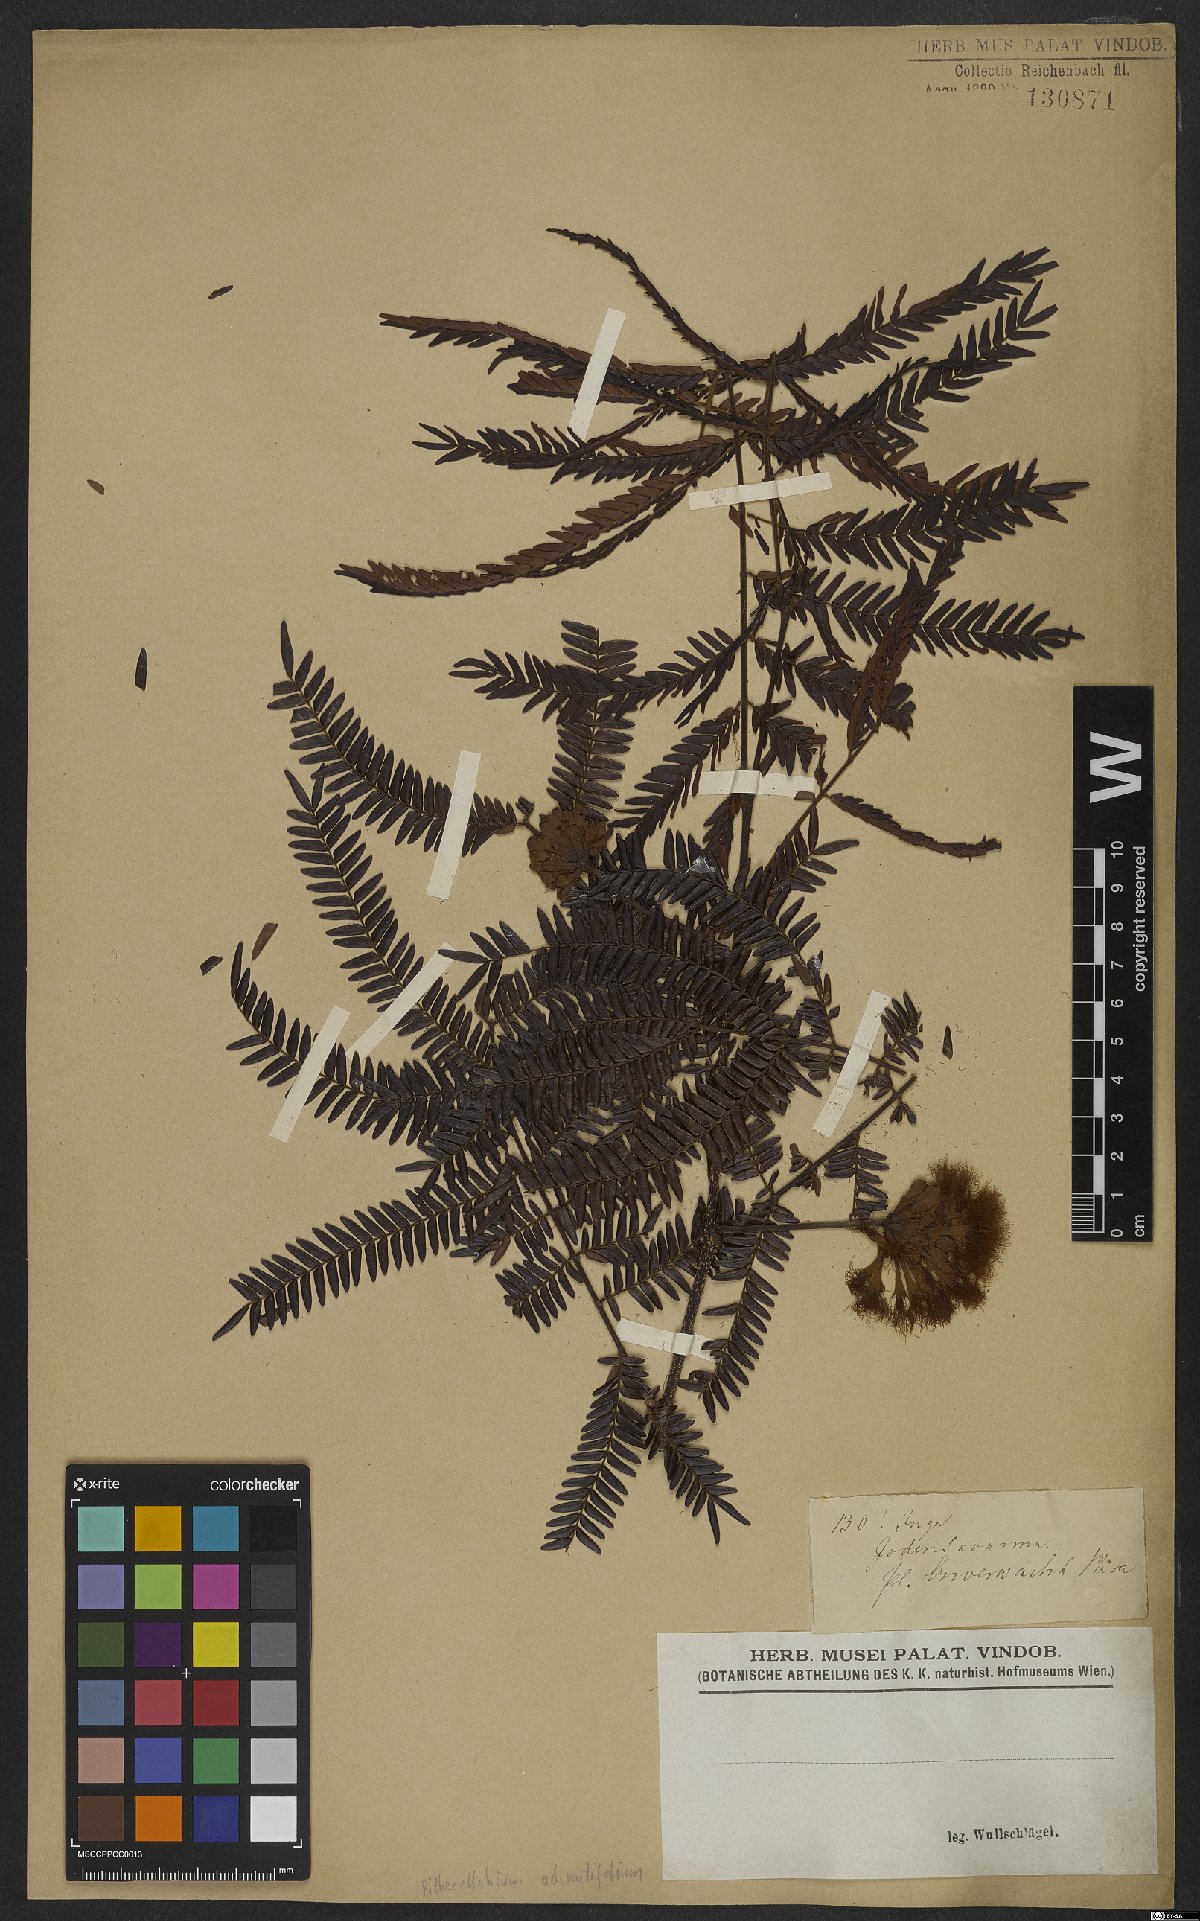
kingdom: Plantae
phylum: Tracheophyta
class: Magnoliopsida
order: Fabales
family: Fabaceae
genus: Macrosamanea
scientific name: Macrosamanea discolor
